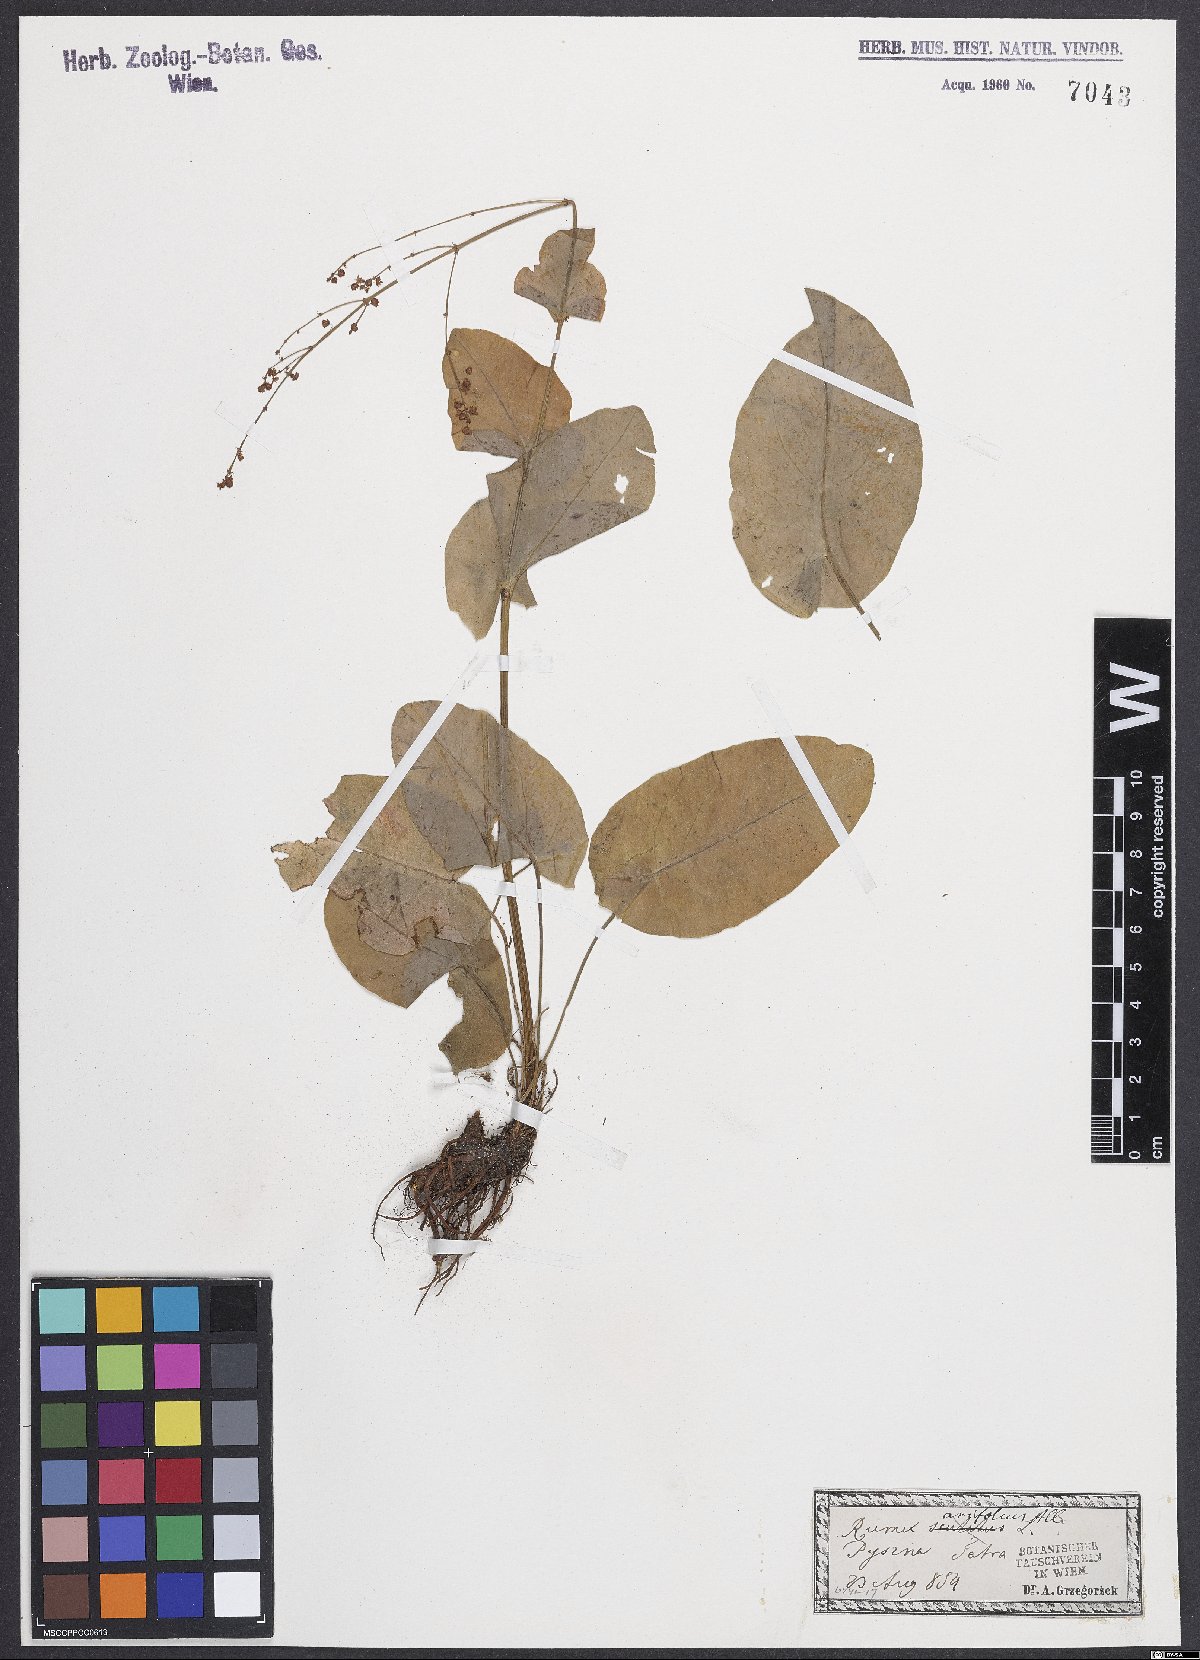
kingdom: Plantae
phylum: Tracheophyta
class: Magnoliopsida
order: Caryophyllales
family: Polygonaceae
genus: Rumex
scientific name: Rumex arifolius
